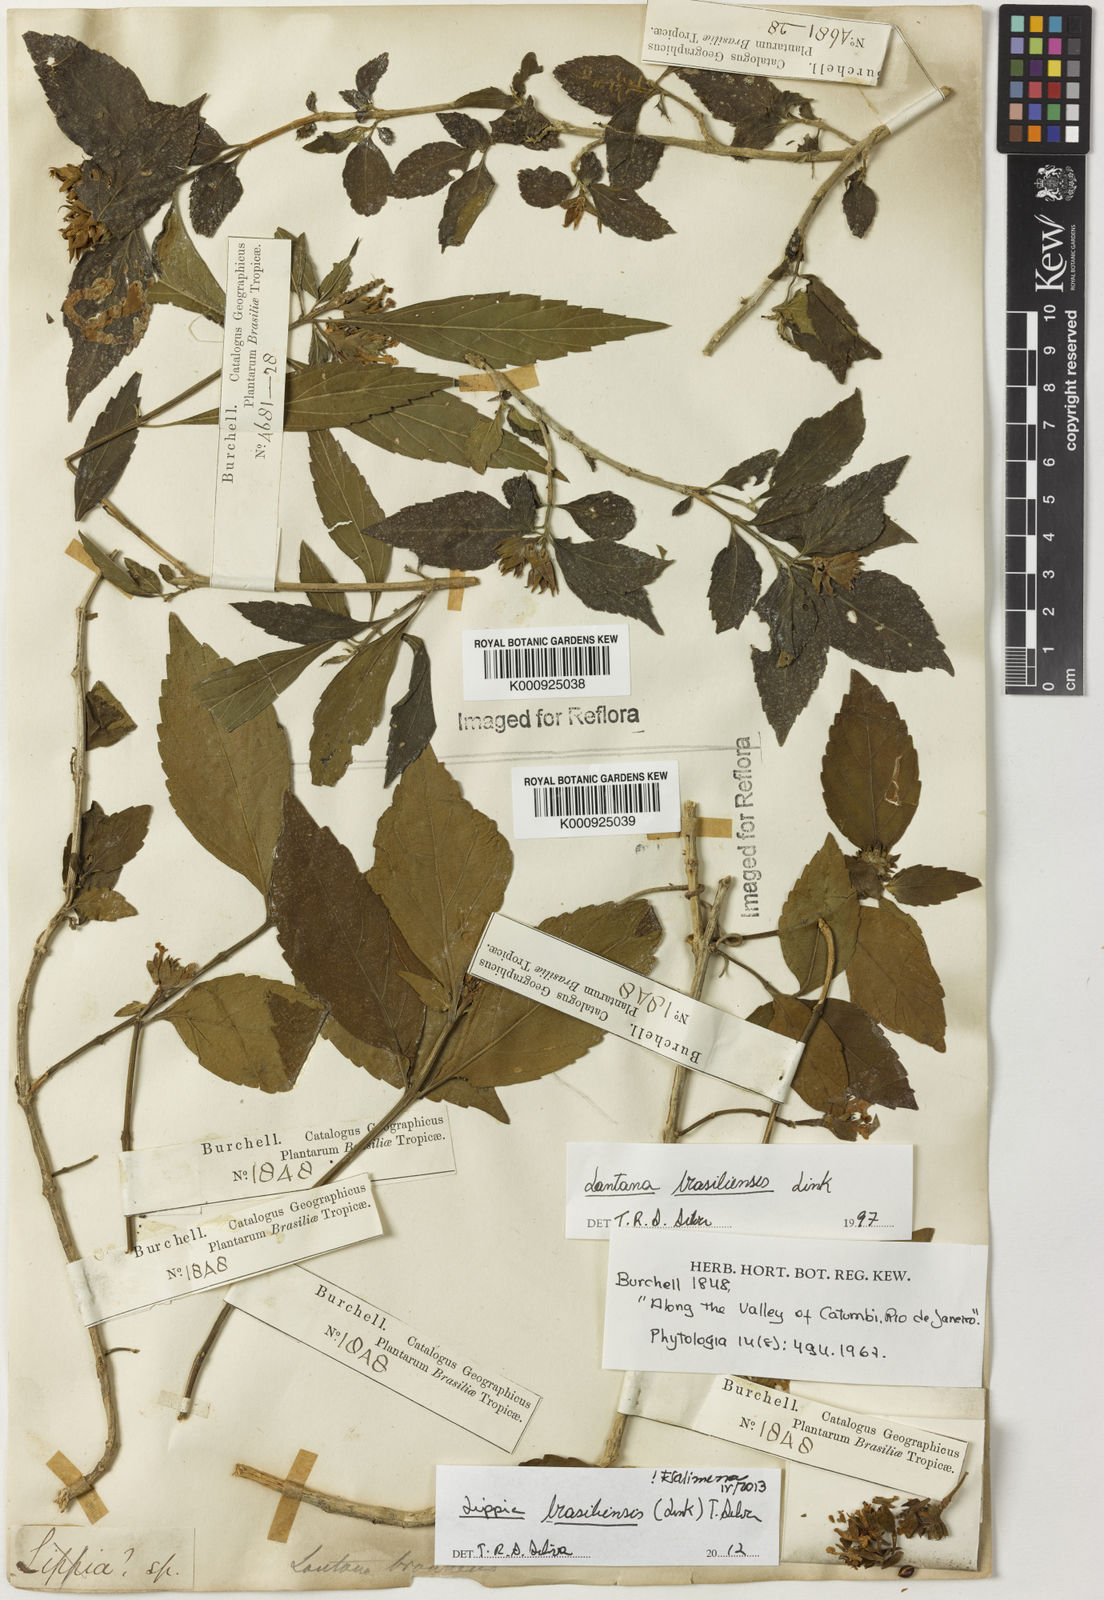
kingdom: Plantae
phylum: Tracheophyta
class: Magnoliopsida
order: Lamiales
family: Verbenaceae
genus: Lippia
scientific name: Lippia brasiliensis
